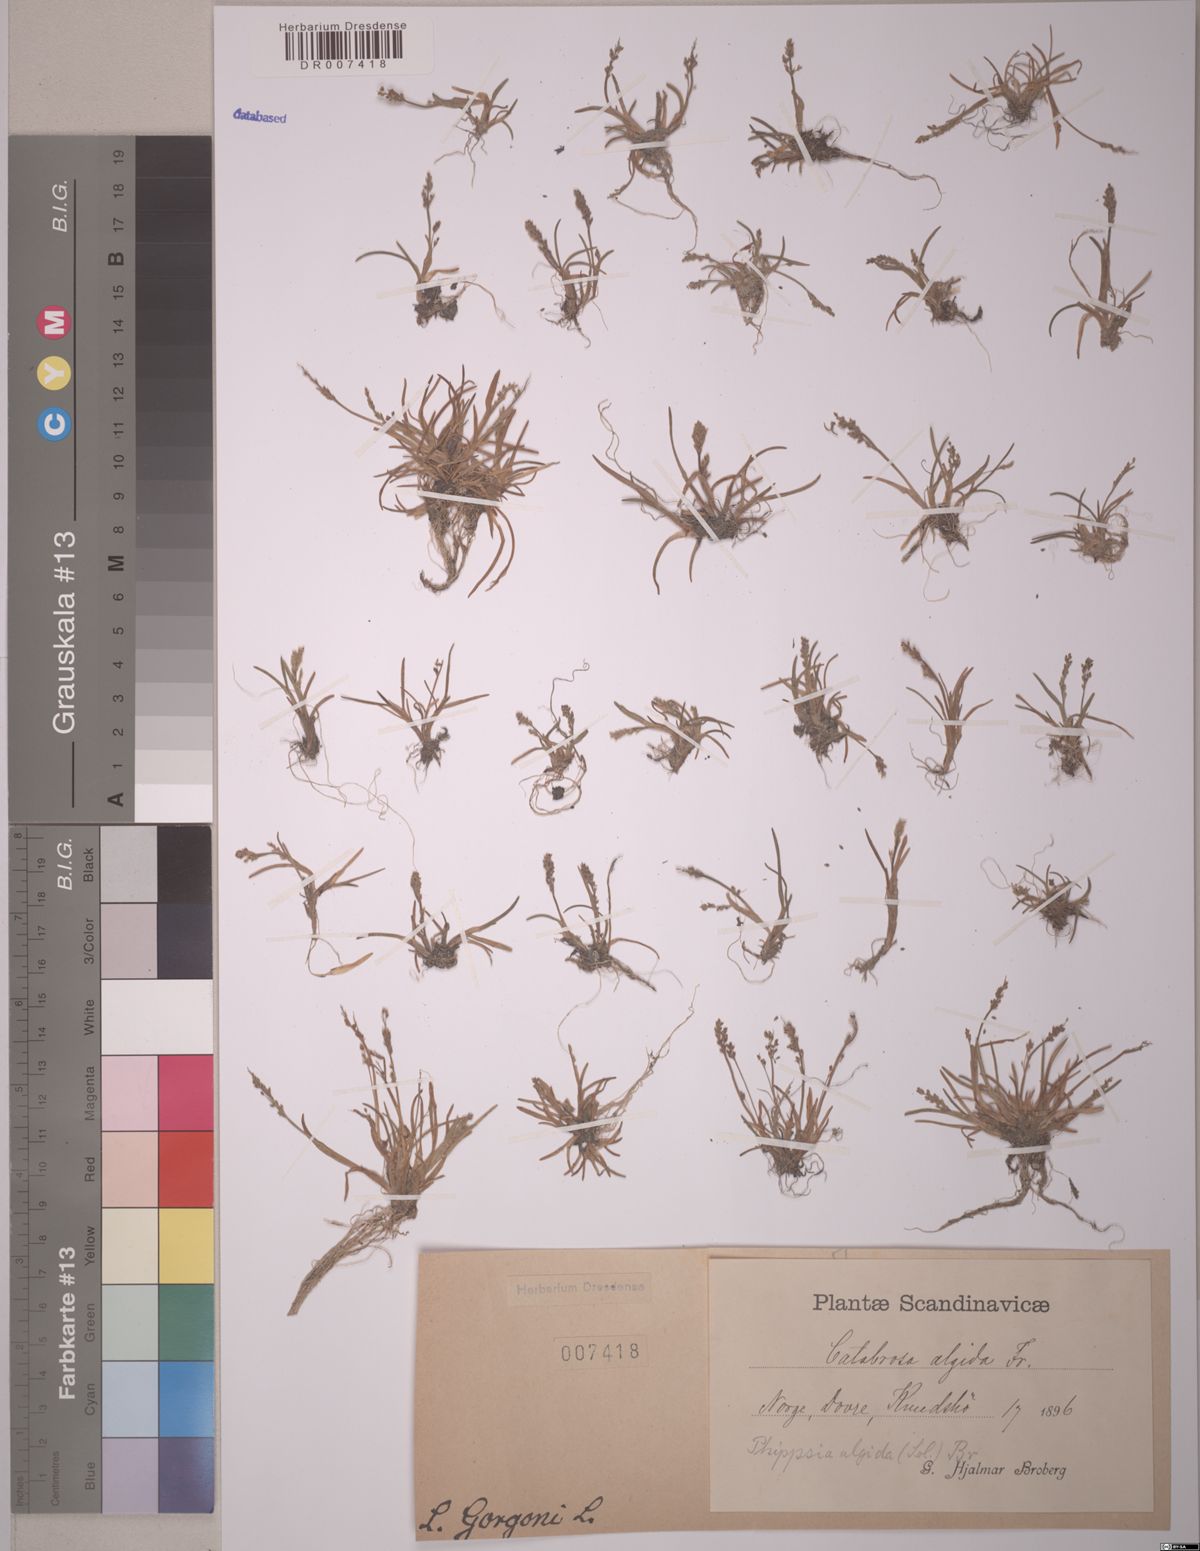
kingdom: Plantae
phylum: Tracheophyta
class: Liliopsida
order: Poales
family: Poaceae
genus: Phippsia
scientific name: Phippsia algida
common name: Ice grass
